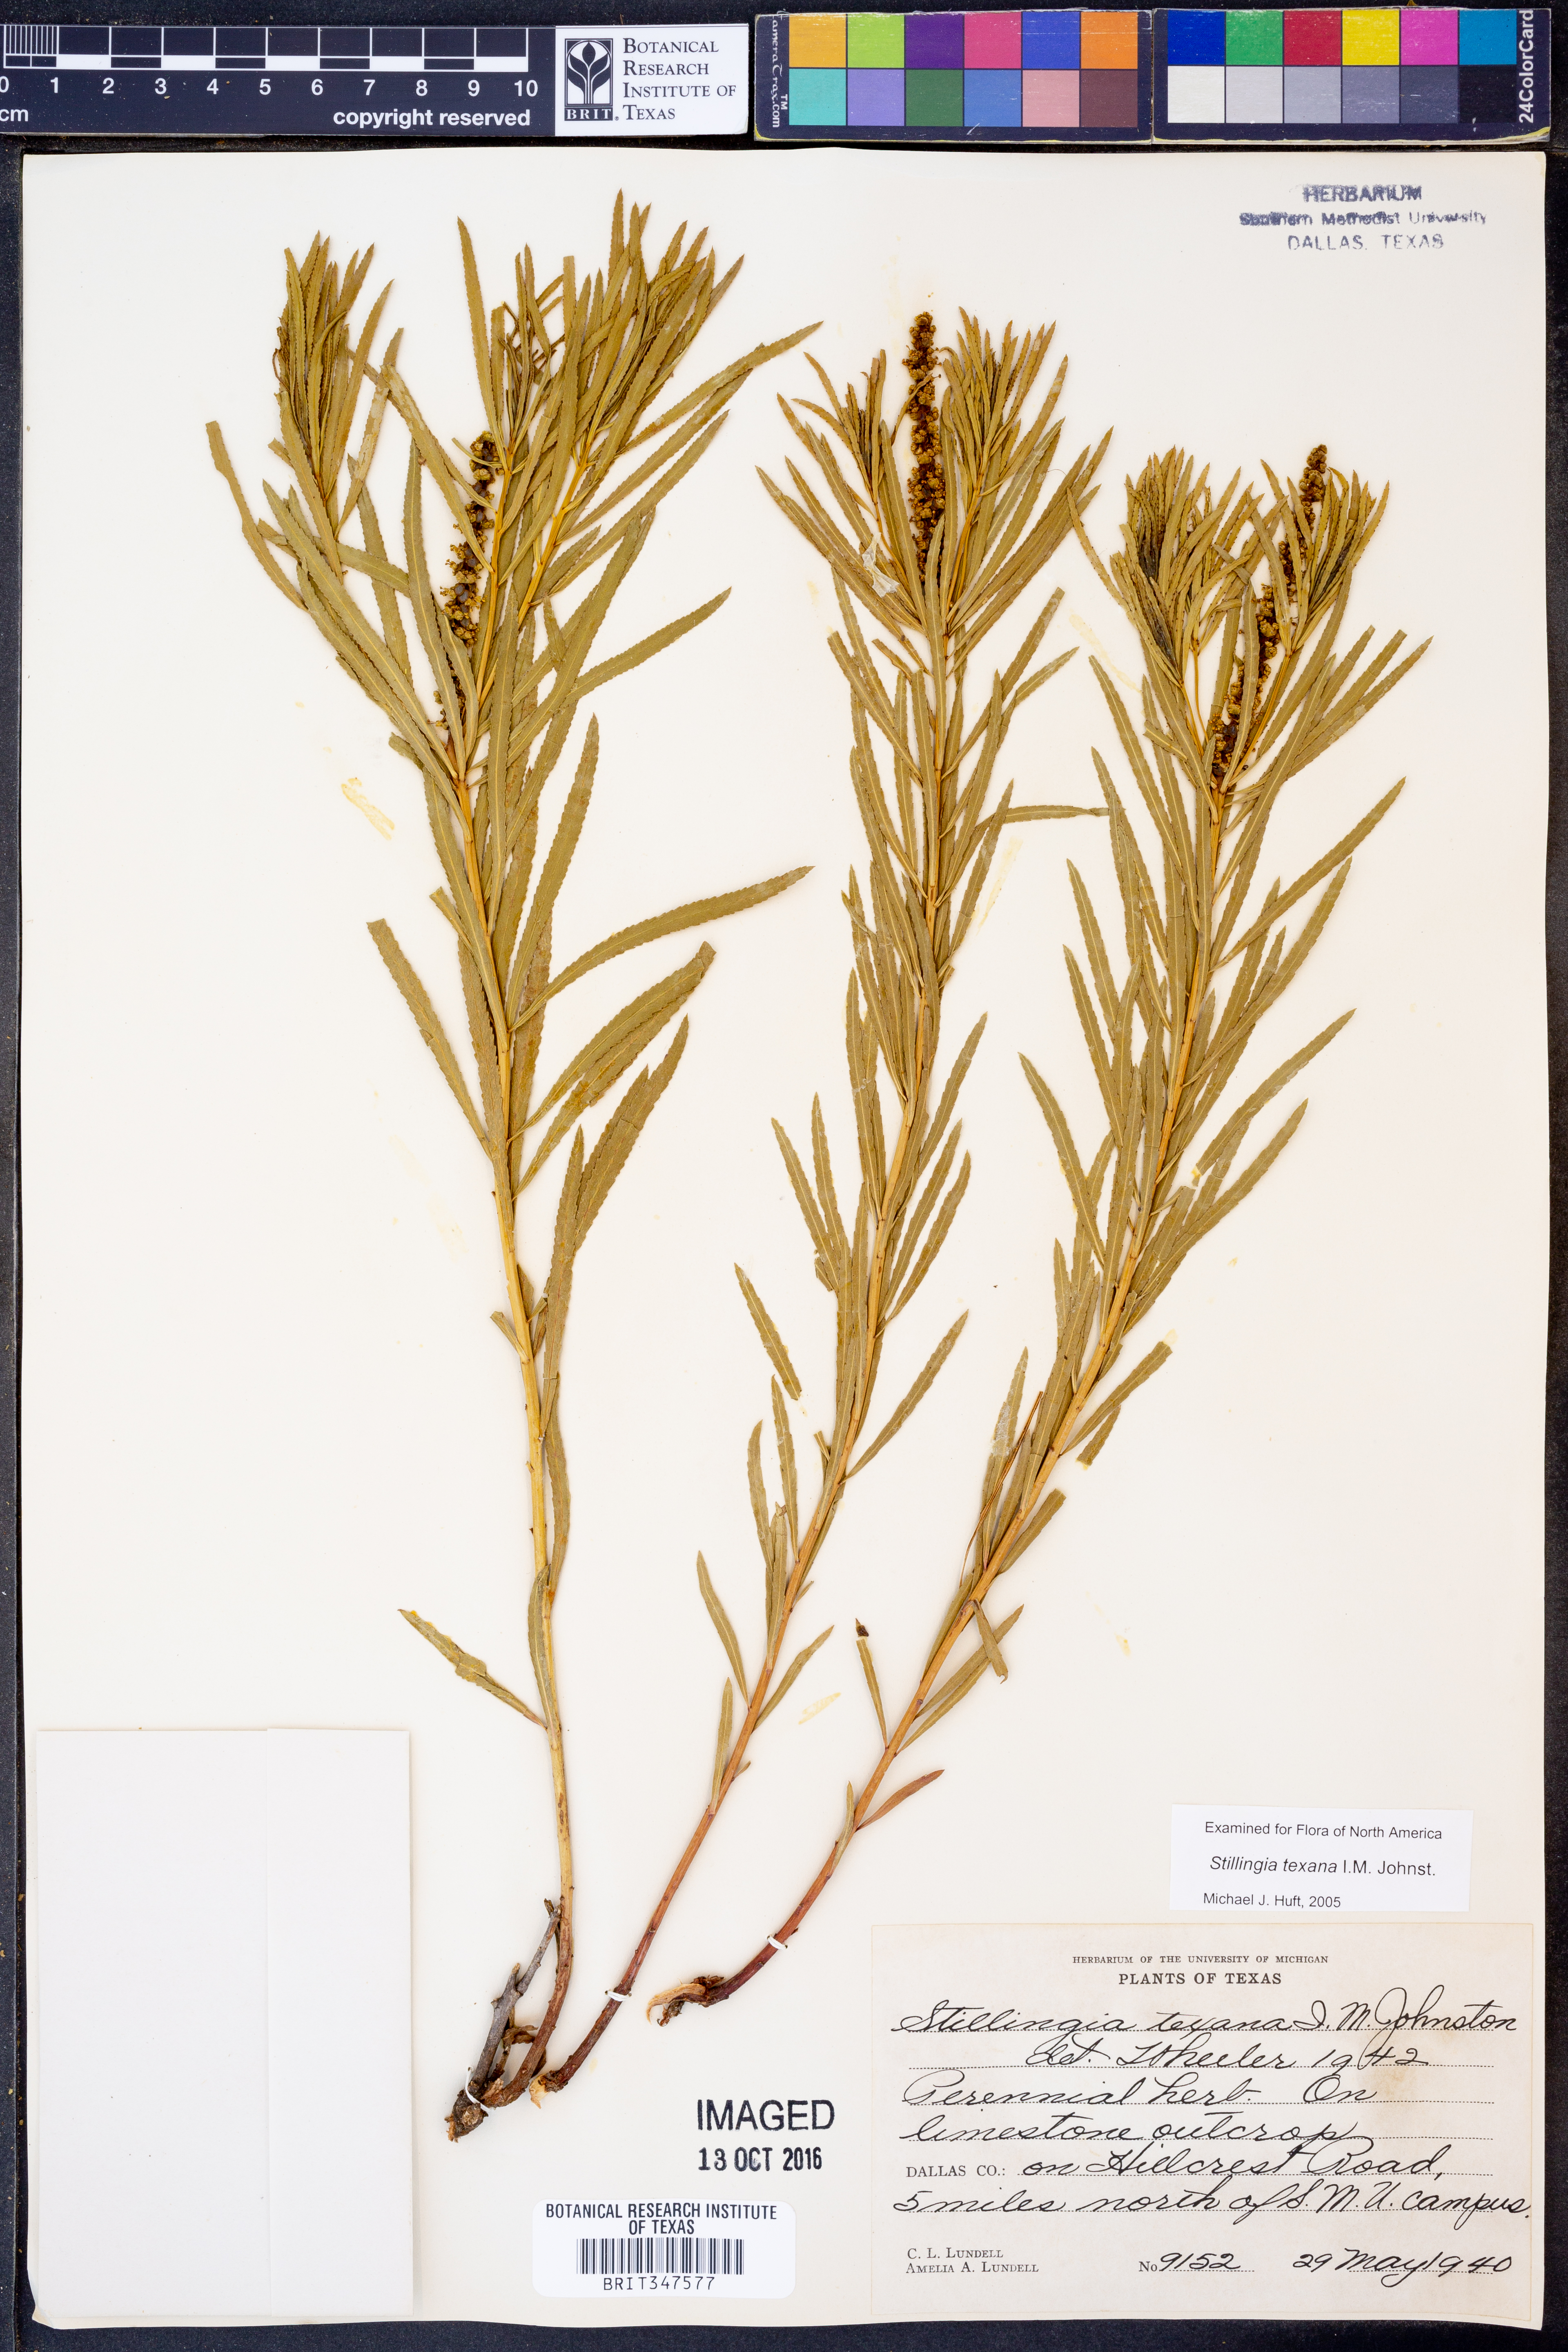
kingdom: Plantae
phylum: Tracheophyta
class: Magnoliopsida
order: Malpighiales
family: Euphorbiaceae
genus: Stillingia
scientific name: Stillingia texana
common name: Texas stillingia
